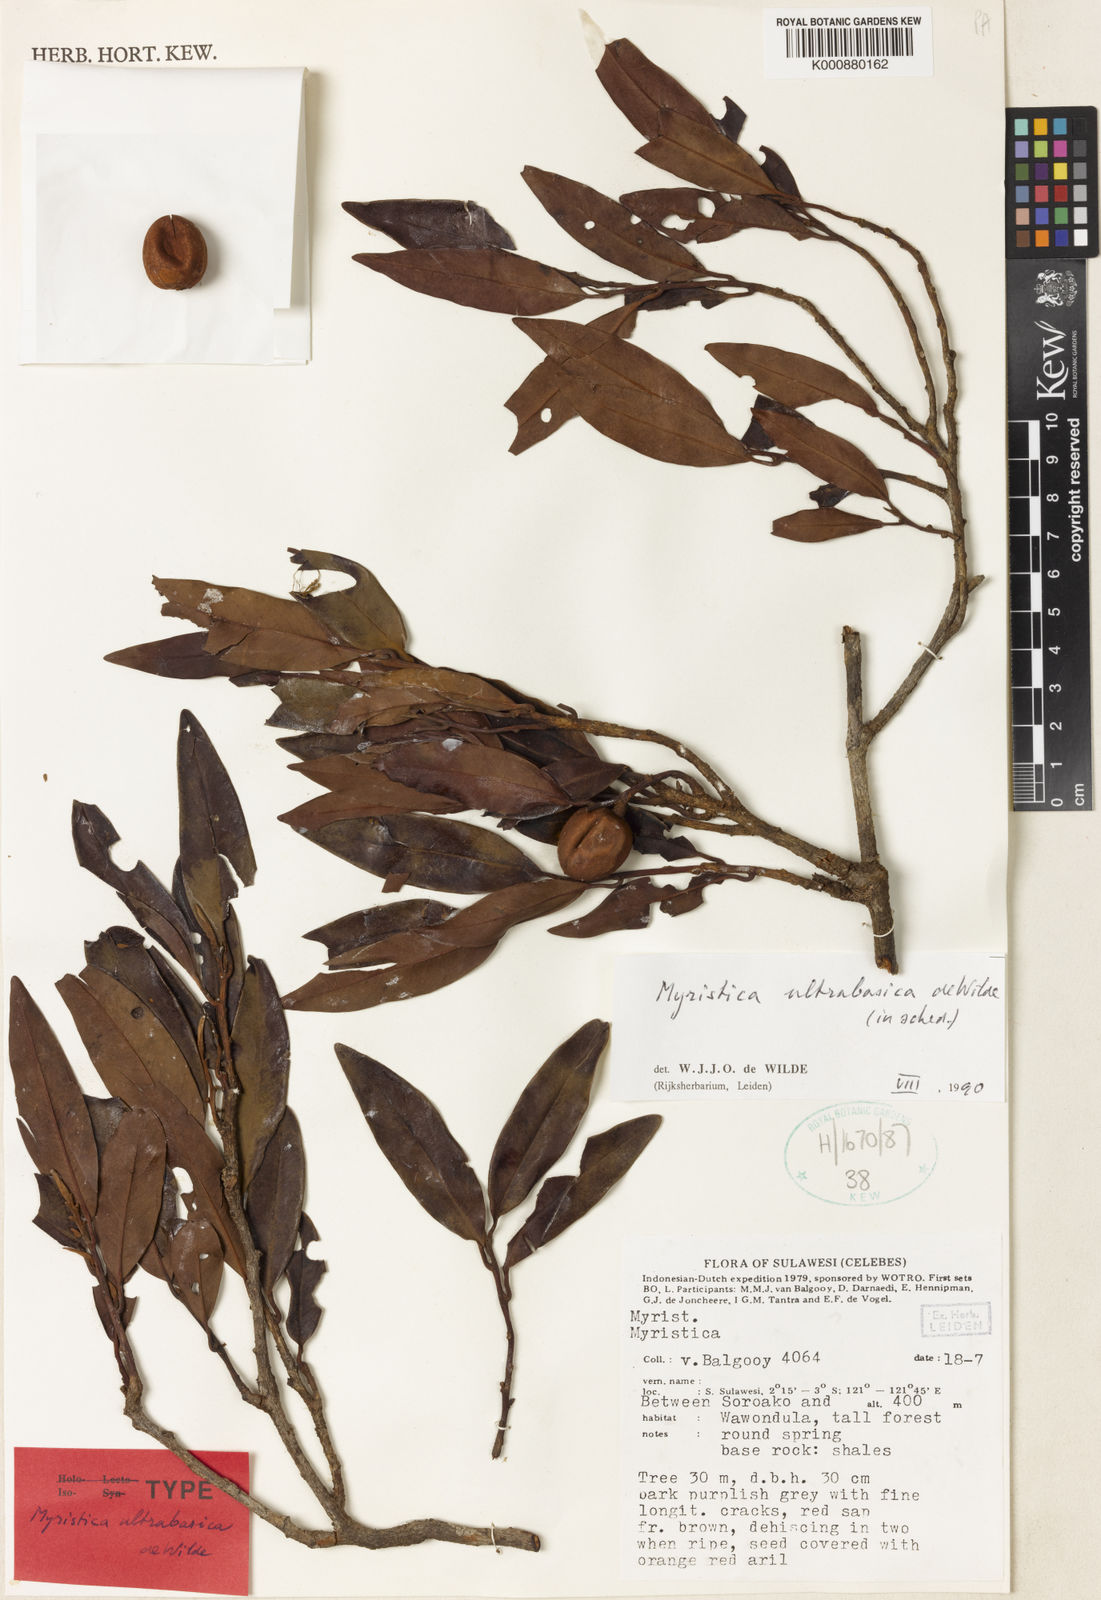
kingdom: Plantae
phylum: Tracheophyta
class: Magnoliopsida
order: Magnoliales
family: Myristicaceae
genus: Myristica
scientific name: Myristica ultrabasica
